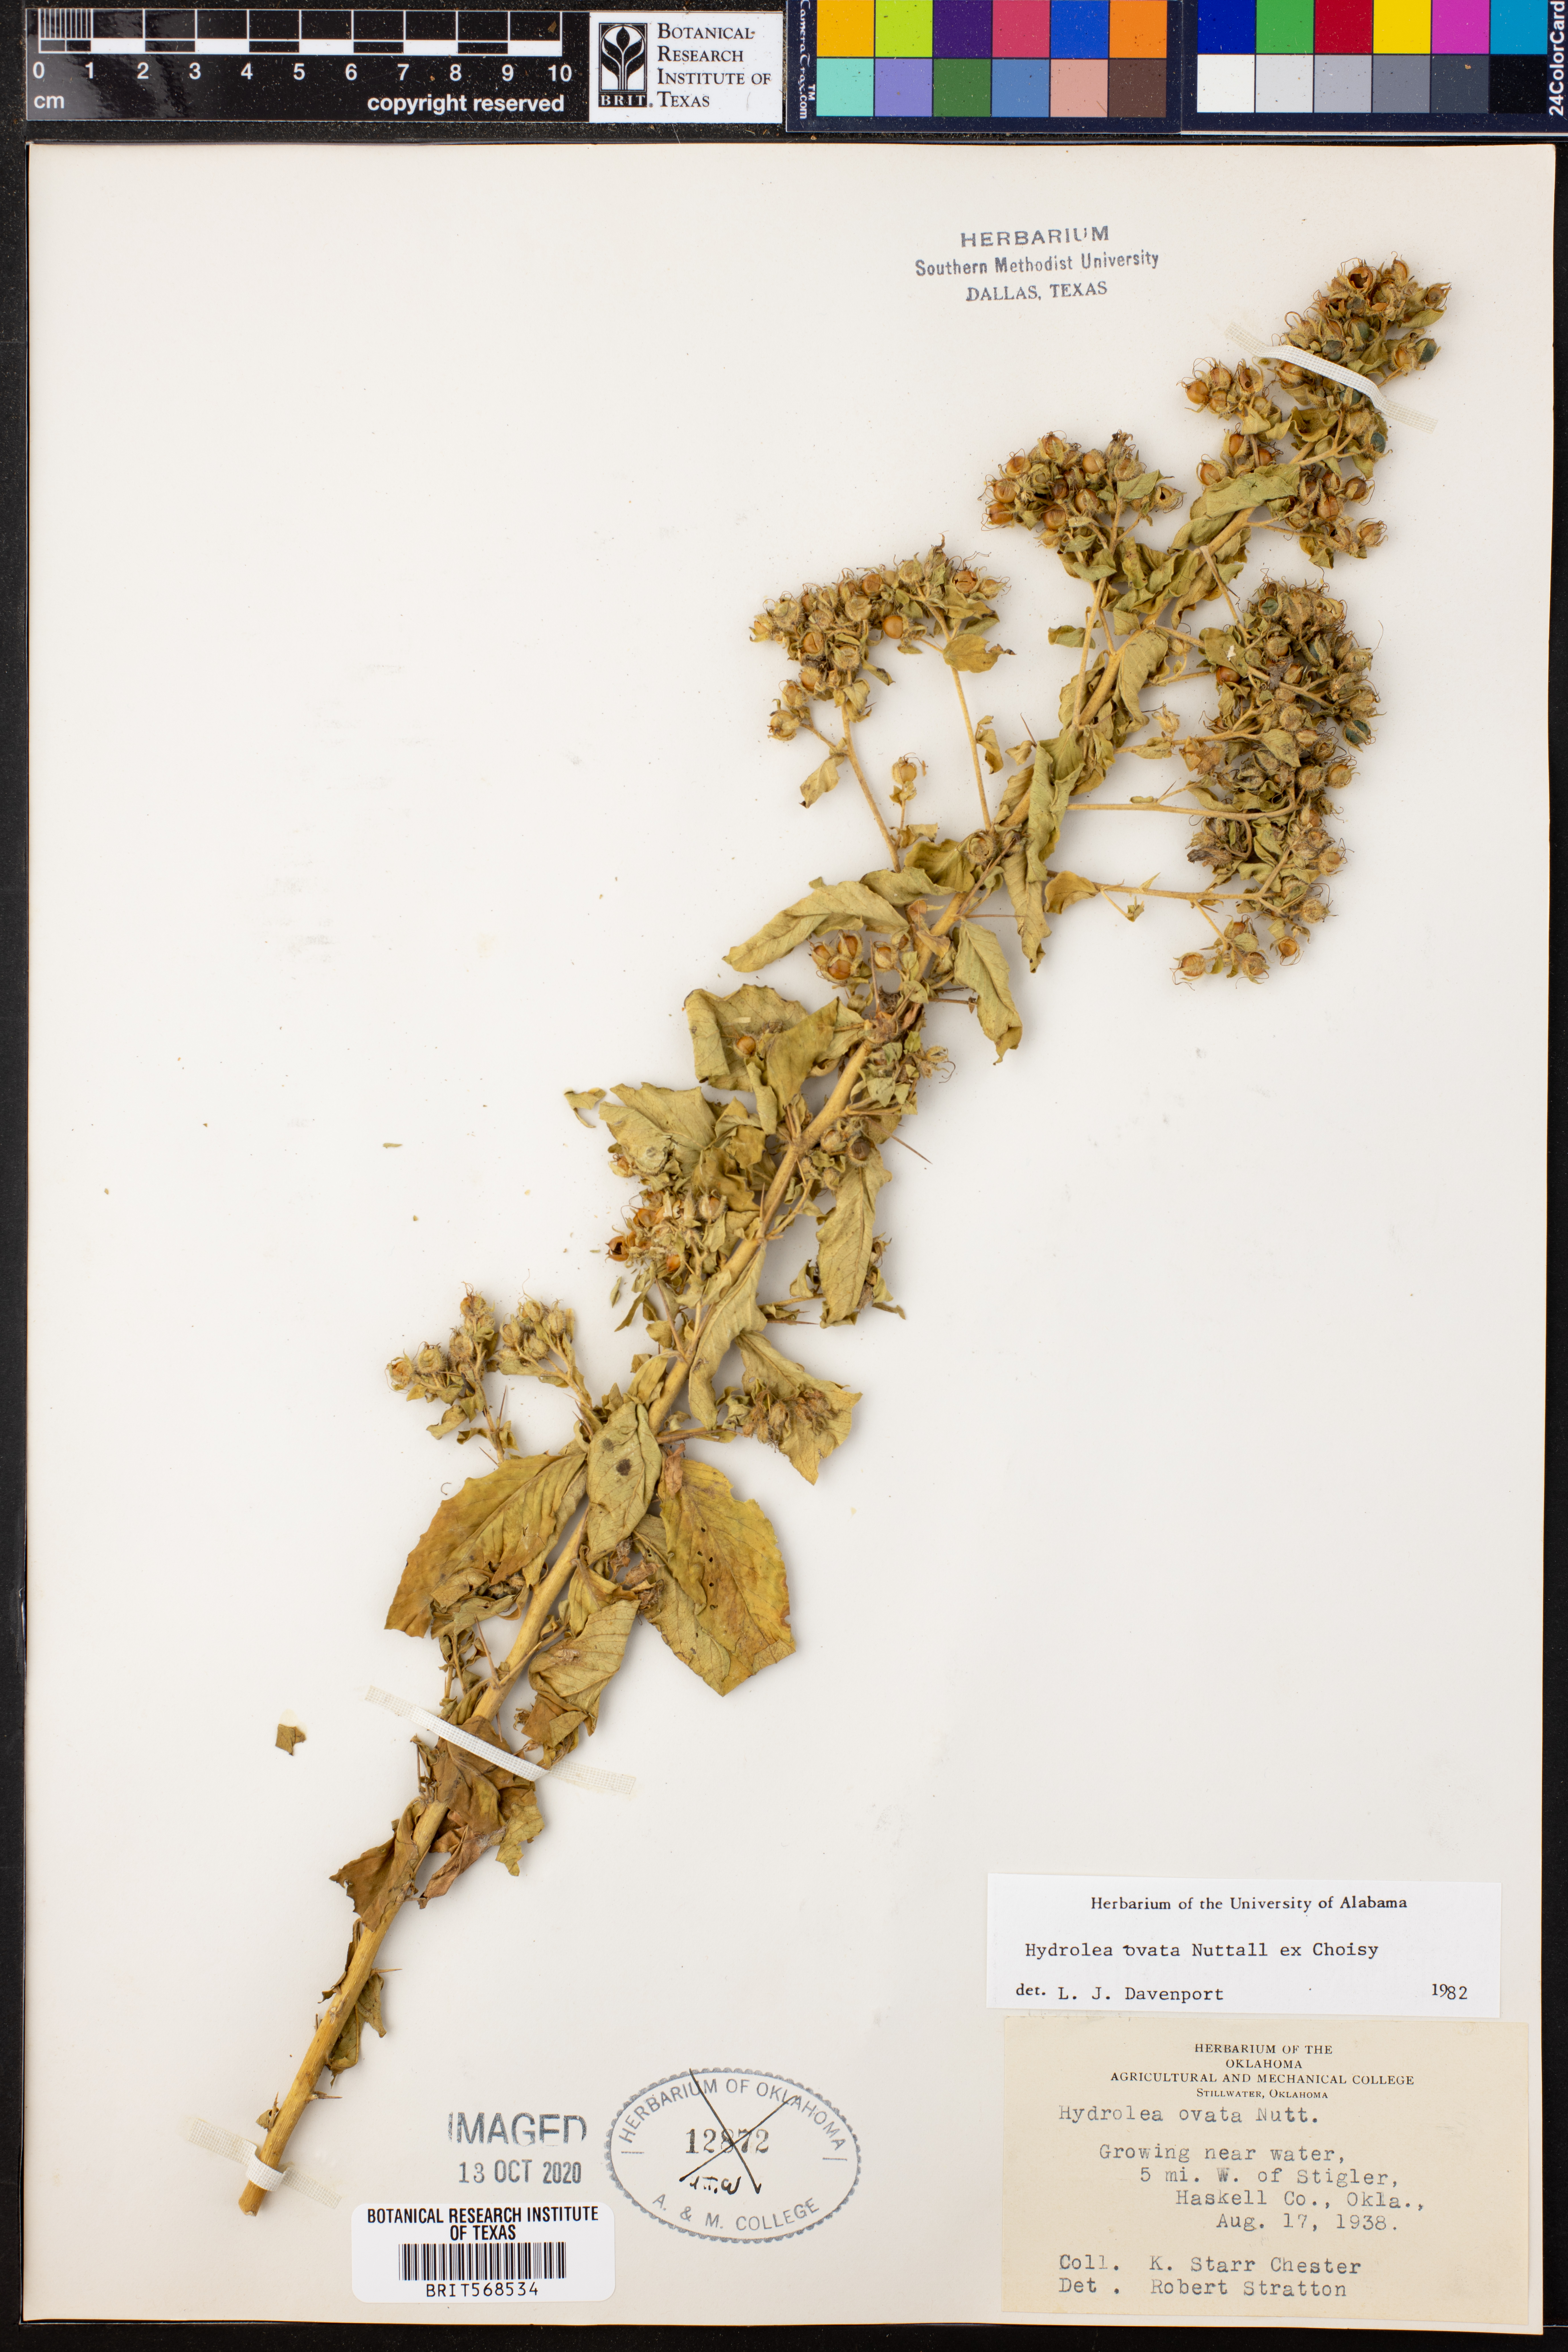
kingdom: Plantae
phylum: Tracheophyta
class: Magnoliopsida
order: Solanales
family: Hydroleaceae
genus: Hydrolea
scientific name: Hydrolea ovata
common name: Ovate false fiddleleaf
